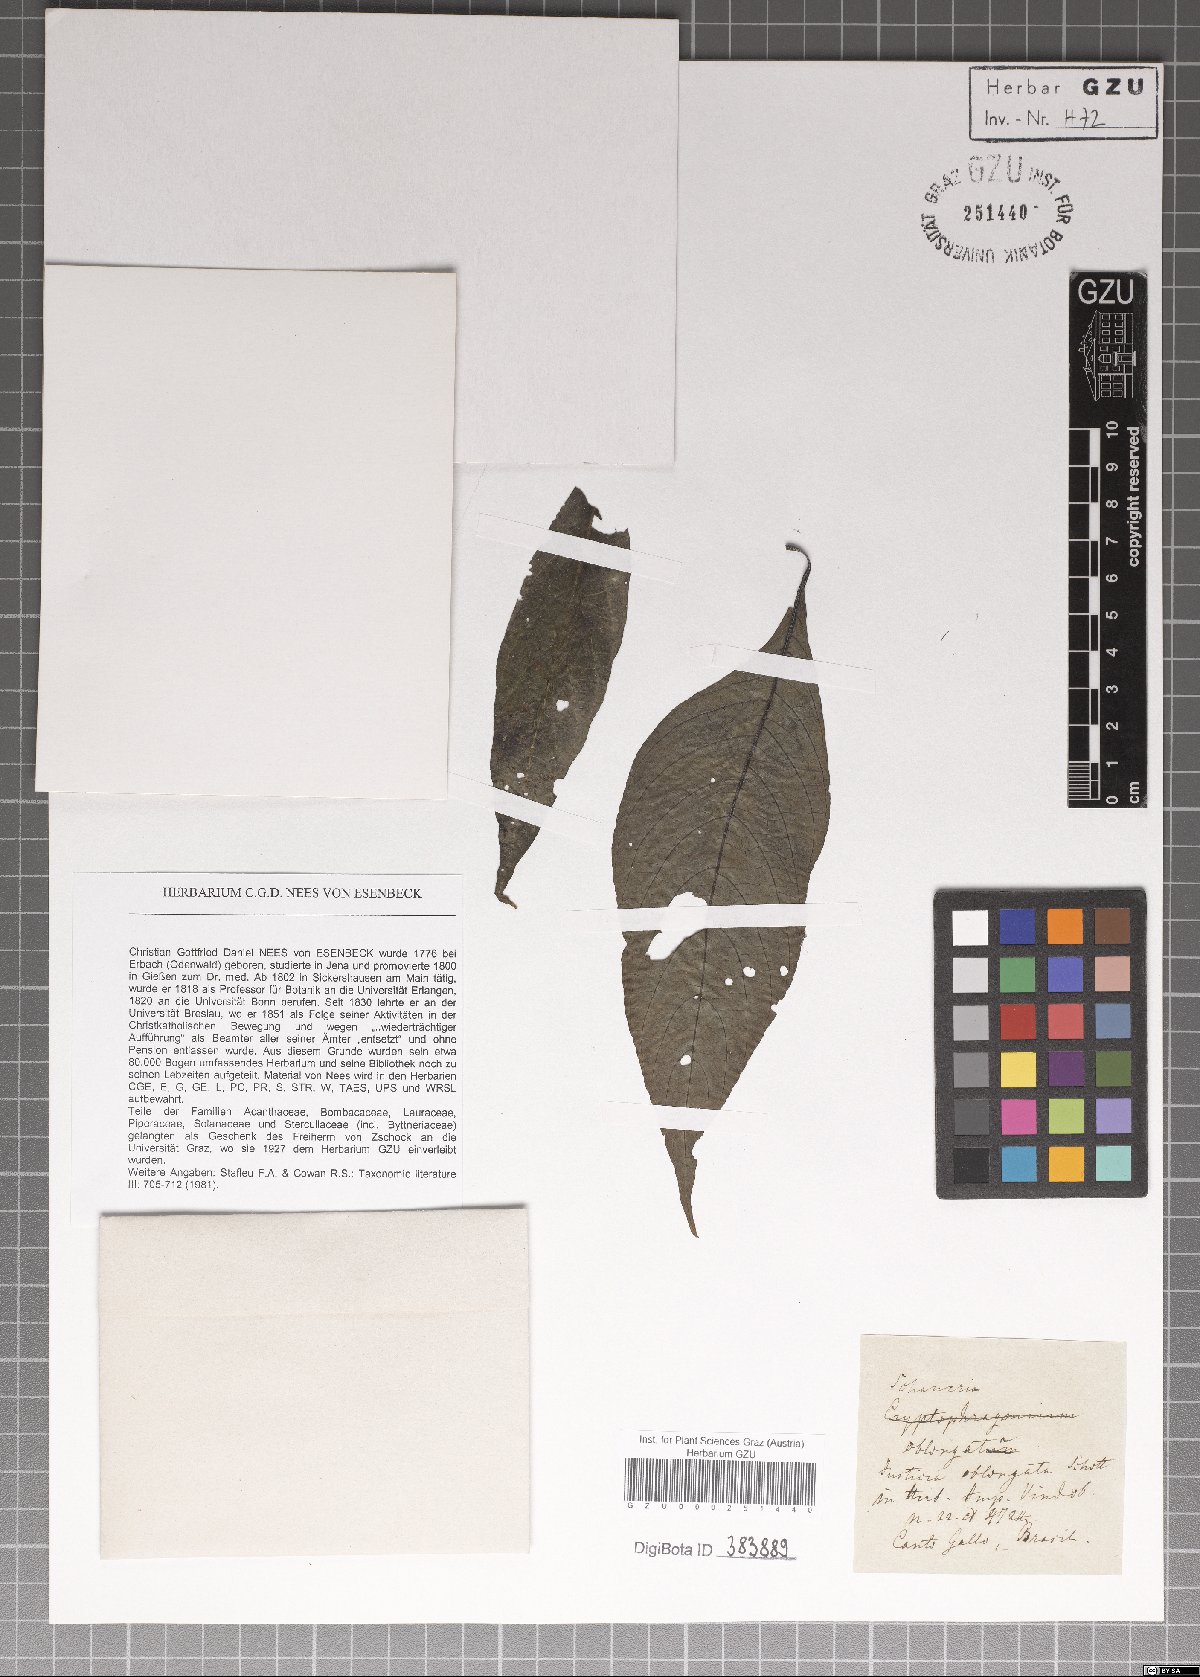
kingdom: Plantae
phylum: Tracheophyta
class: Magnoliopsida
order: Lamiales
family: Acanthaceae
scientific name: Acanthaceae
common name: Acanthaceae
